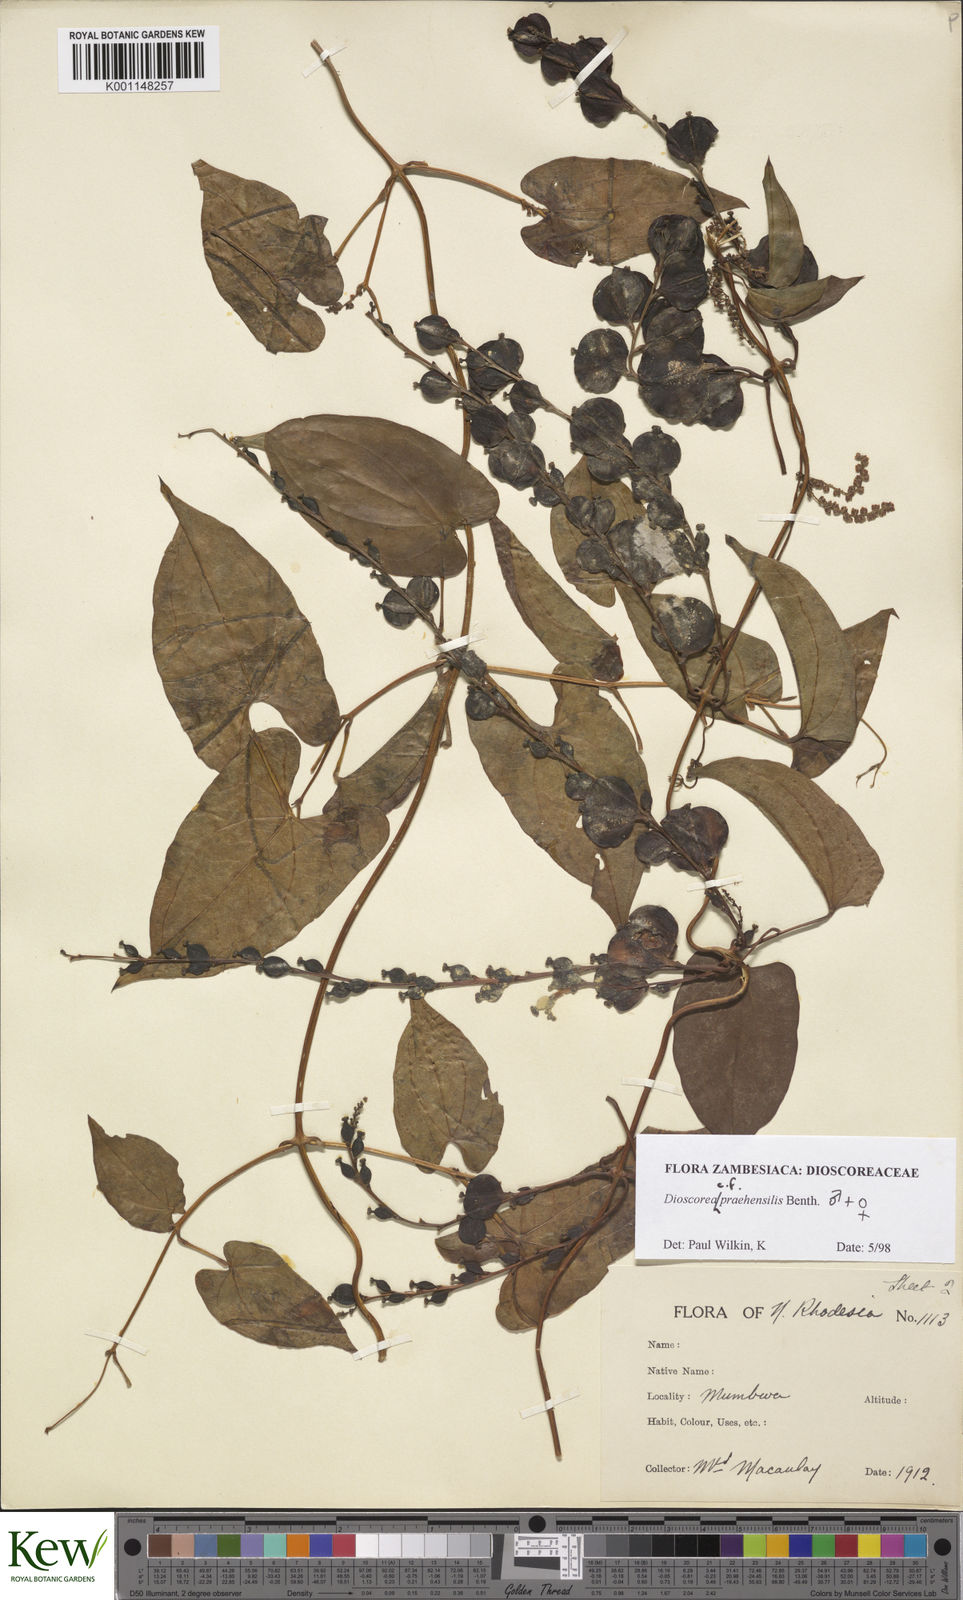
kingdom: Plantae
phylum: Tracheophyta
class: Liliopsida
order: Dioscoreales
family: Dioscoreaceae
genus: Dioscorea
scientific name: Dioscorea praehensilis
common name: Bush yam
